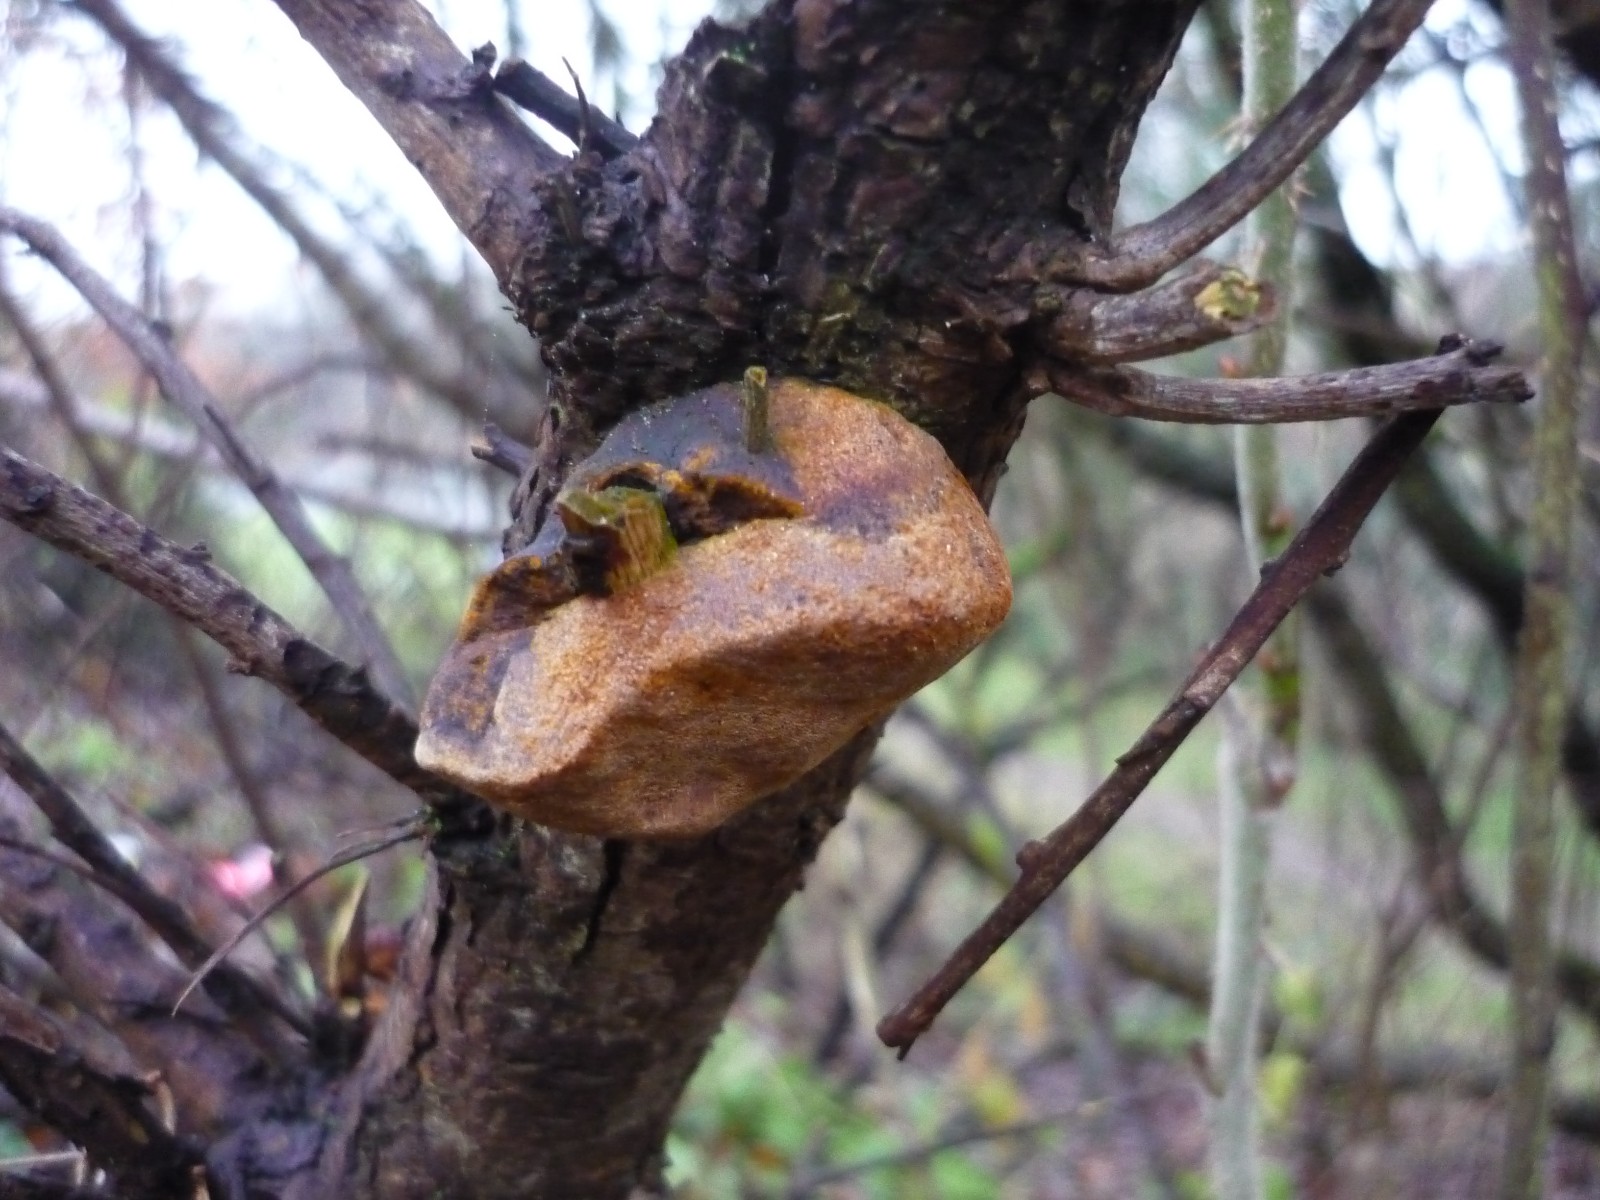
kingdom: Fungi
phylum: Basidiomycota
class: Agaricomycetes
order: Hymenochaetales
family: Hymenochaetaceae
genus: Fomitiporia
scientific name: Fomitiporia hippophaeicola
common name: havtorn-ildporesvamp
